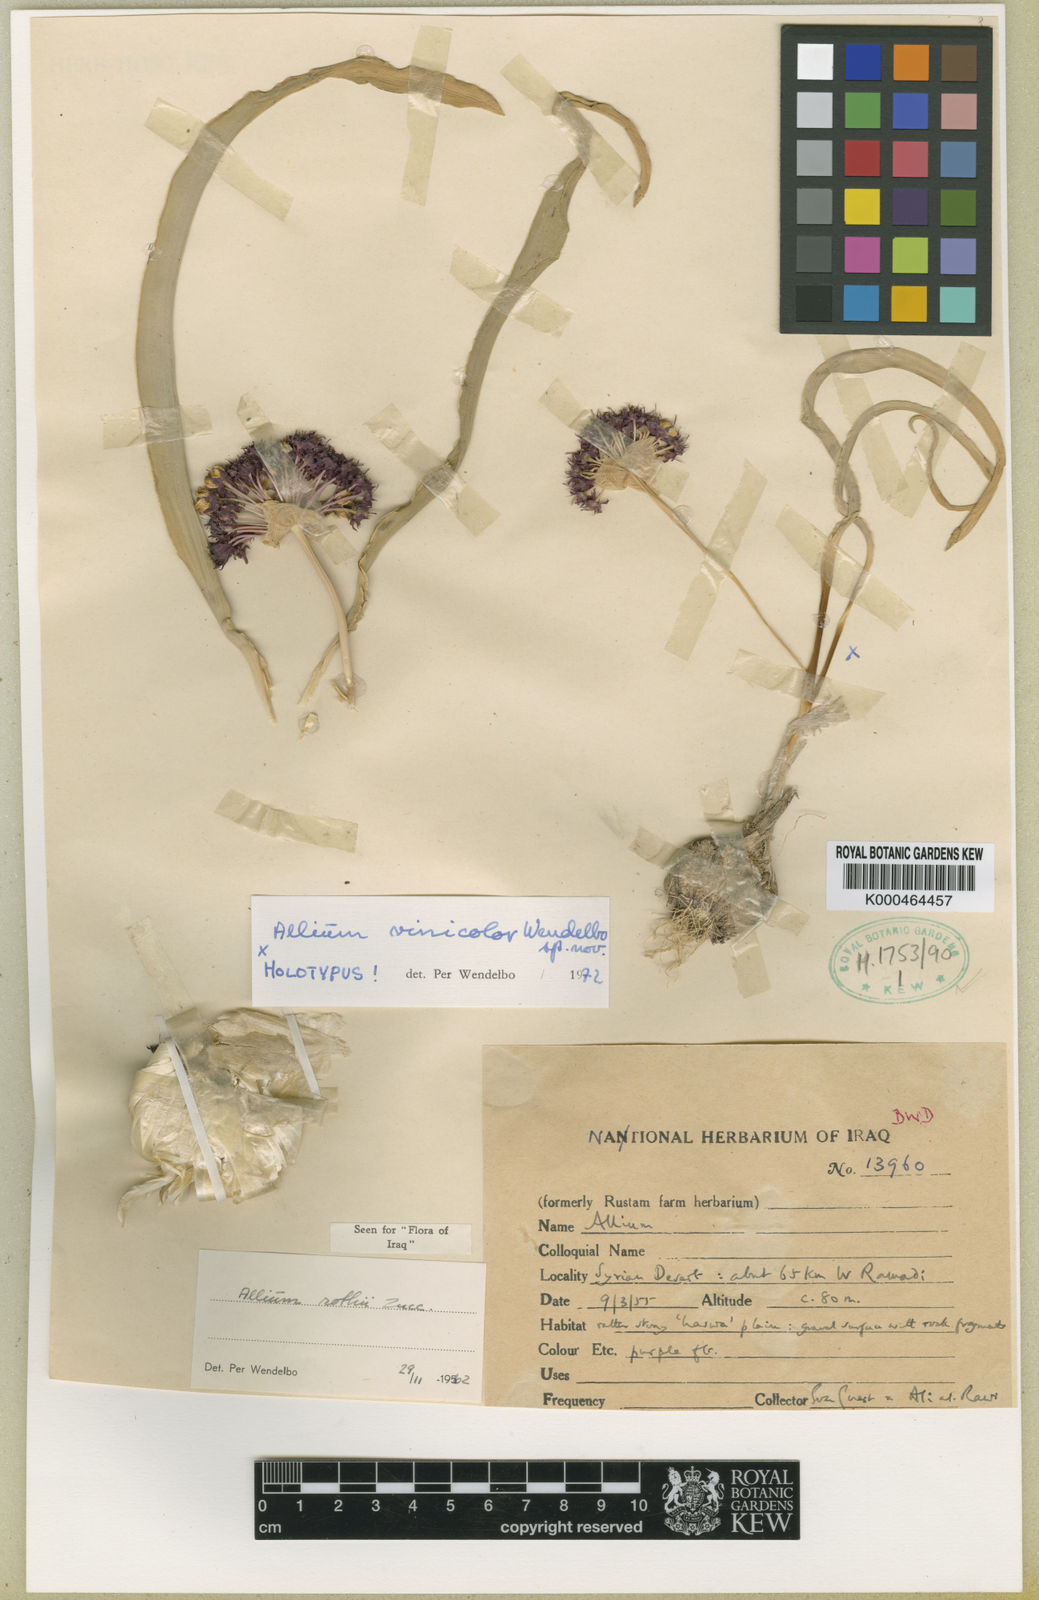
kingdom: Plantae
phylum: Tracheophyta
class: Liliopsida
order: Asparagales
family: Amaryllidaceae
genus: Allium
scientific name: Allium vinicolor
